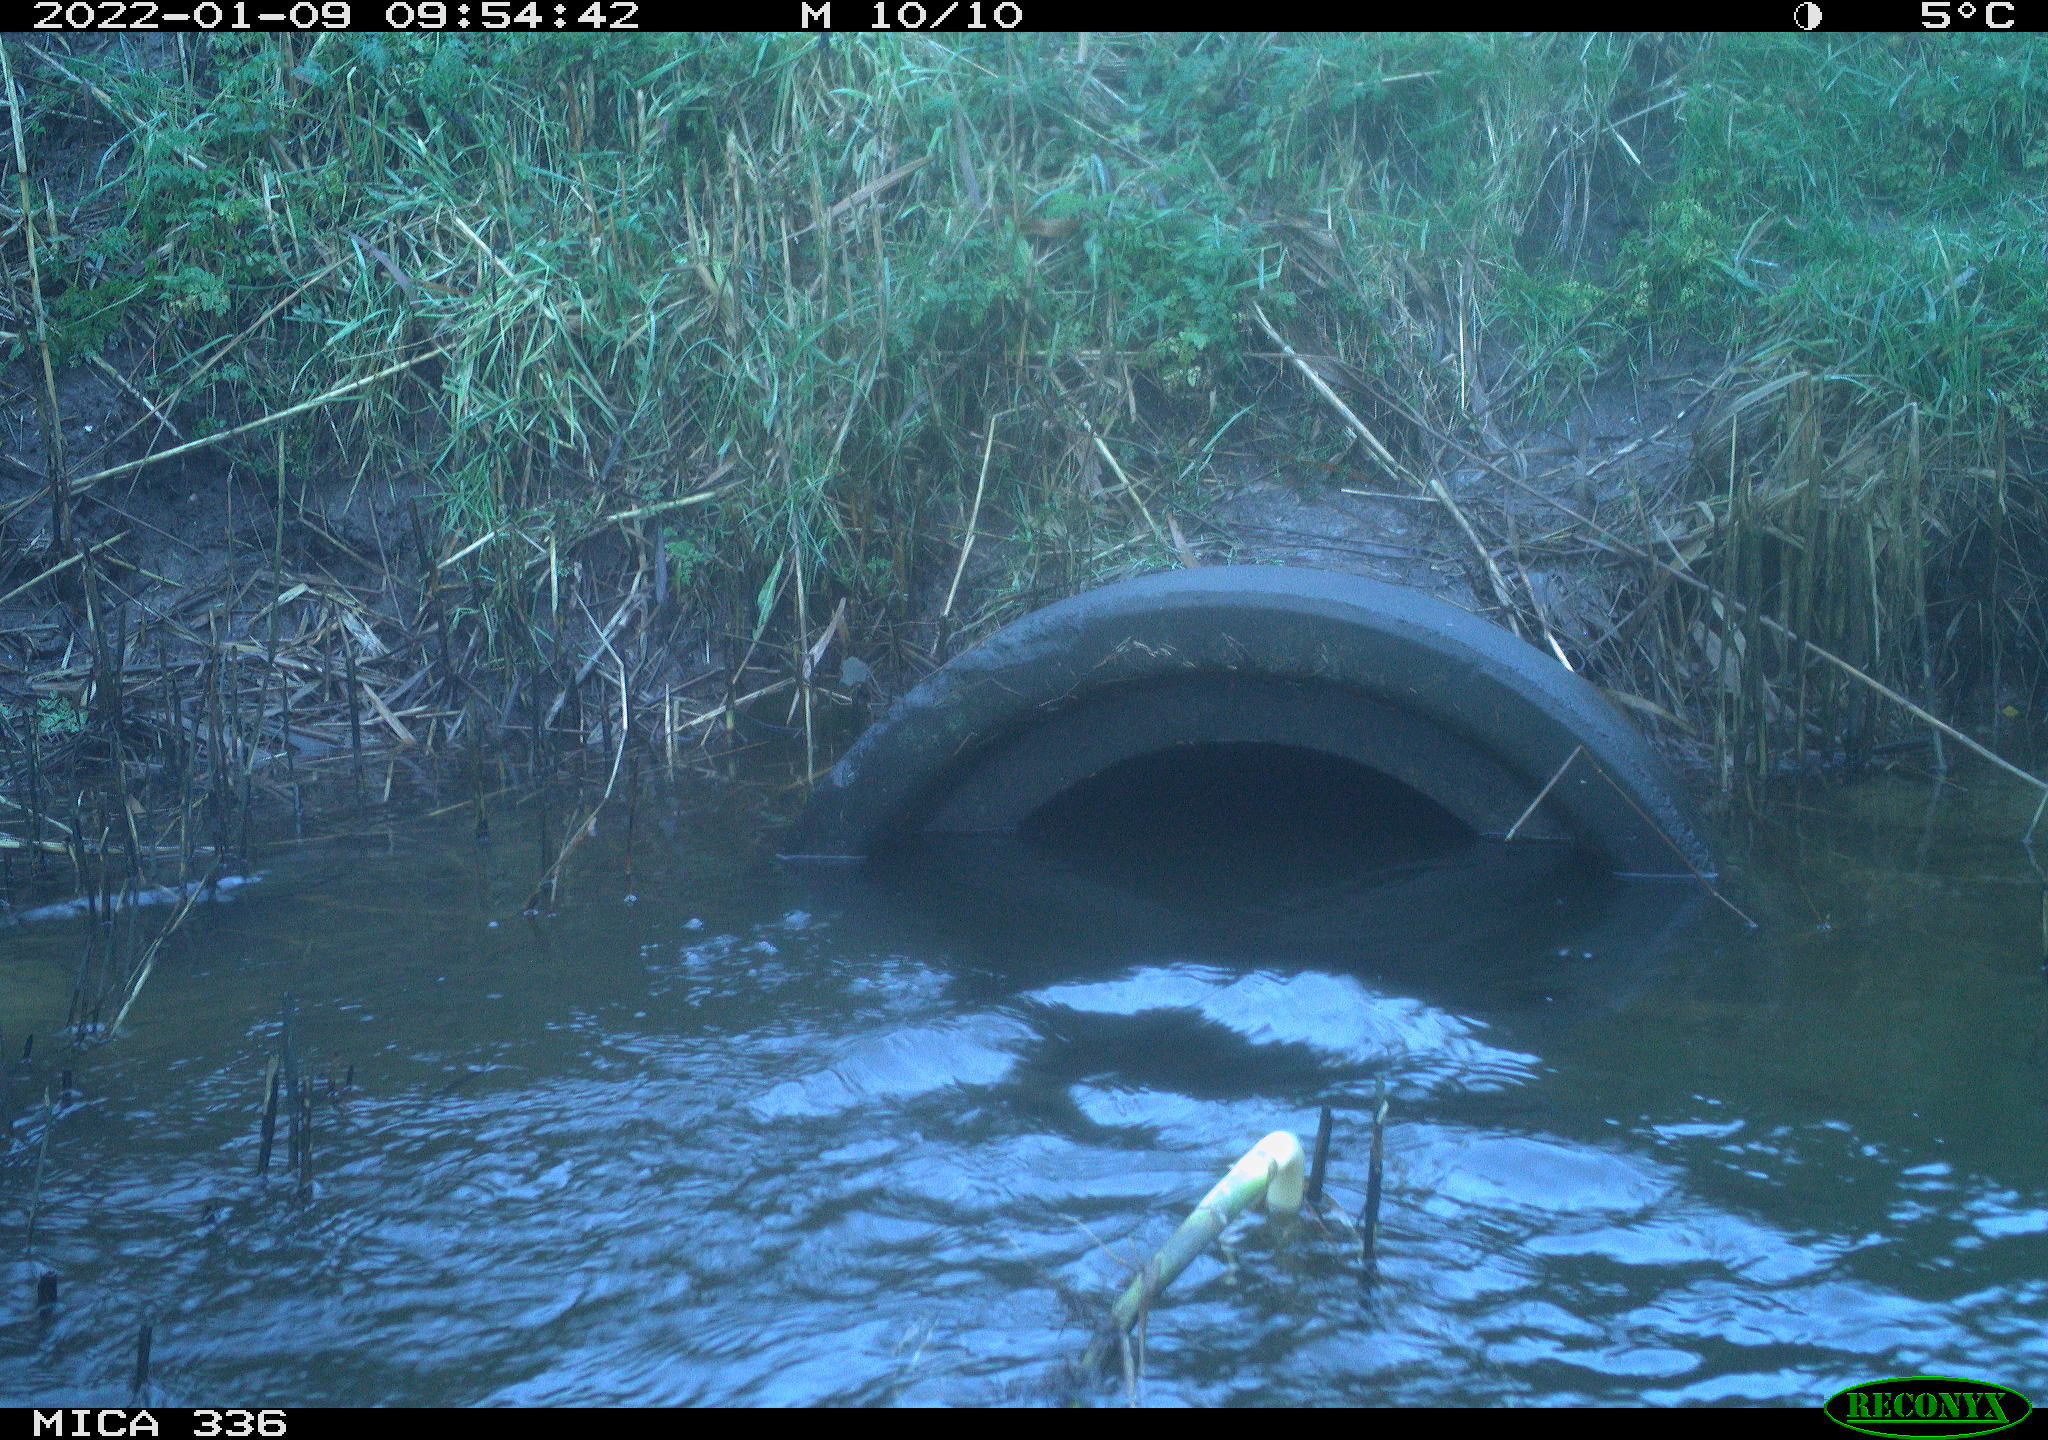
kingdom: Animalia
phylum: Chordata
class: Aves
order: Suliformes
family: Phalacrocoracidae
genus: Phalacrocorax
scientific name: Phalacrocorax carbo
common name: Great cormorant
